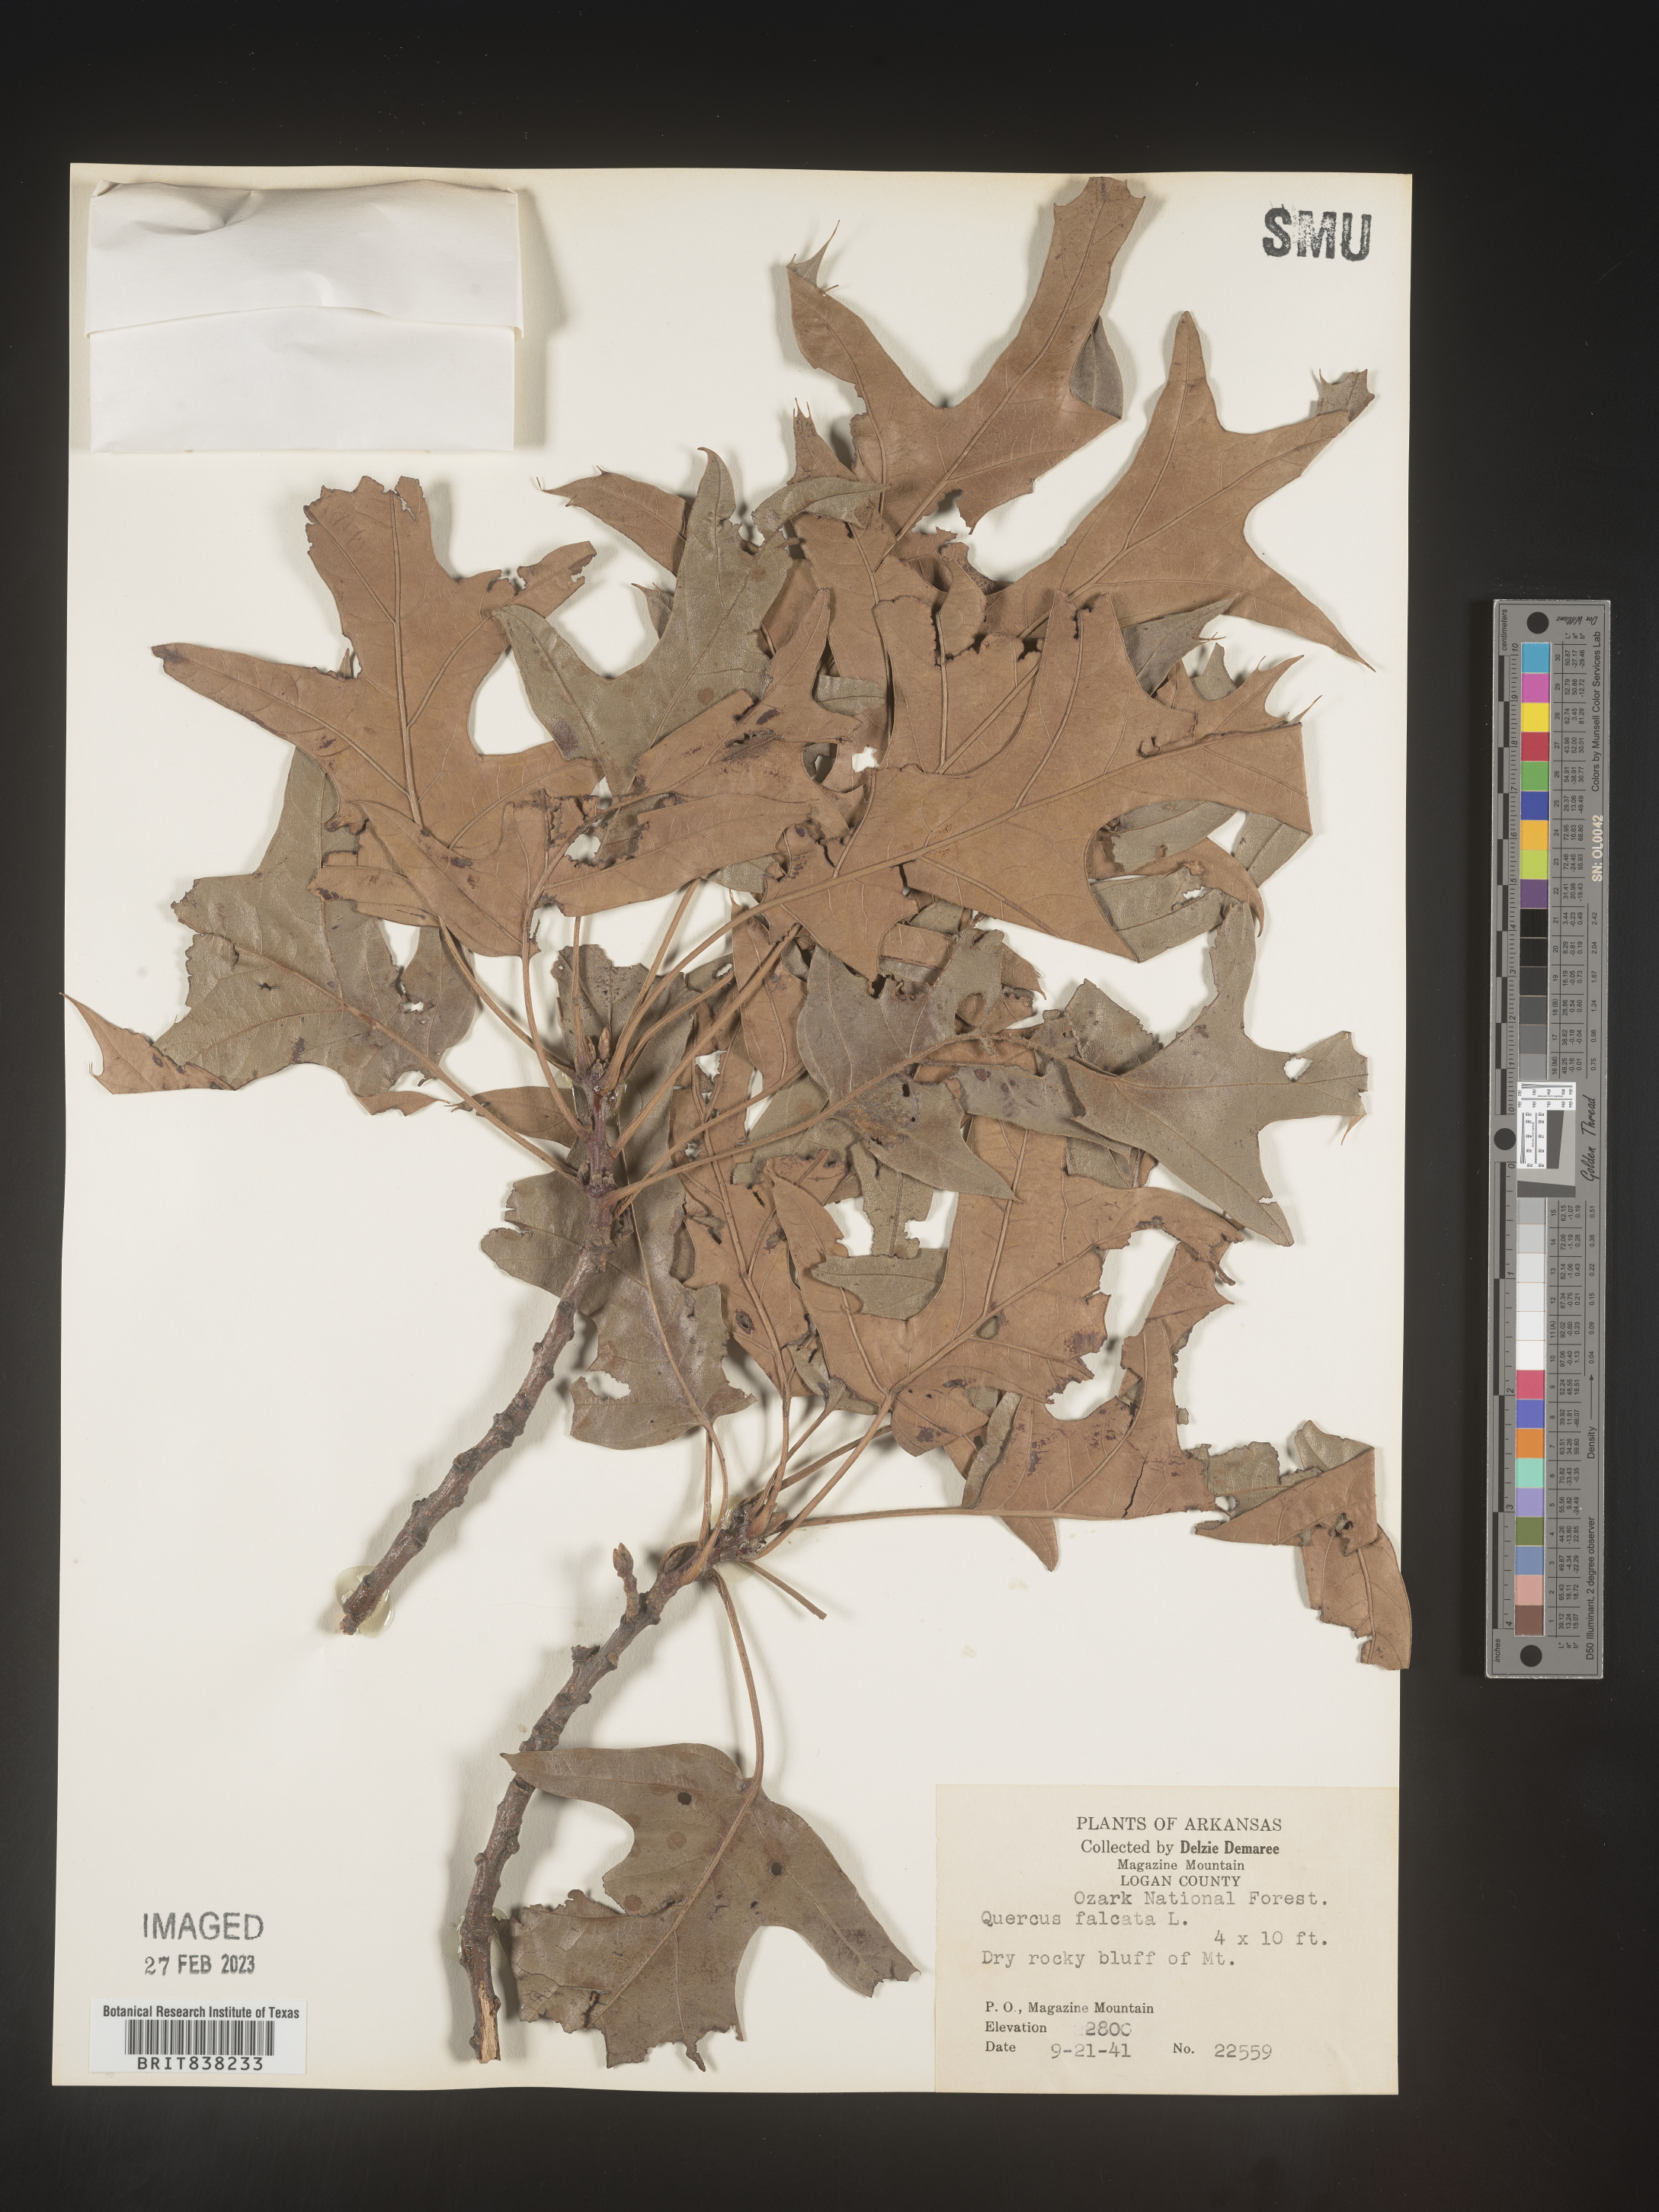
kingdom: Plantae
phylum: Tracheophyta
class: Magnoliopsida
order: Fagales
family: Fagaceae
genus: Quercus
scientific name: Quercus falcata
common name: Southern red oak
